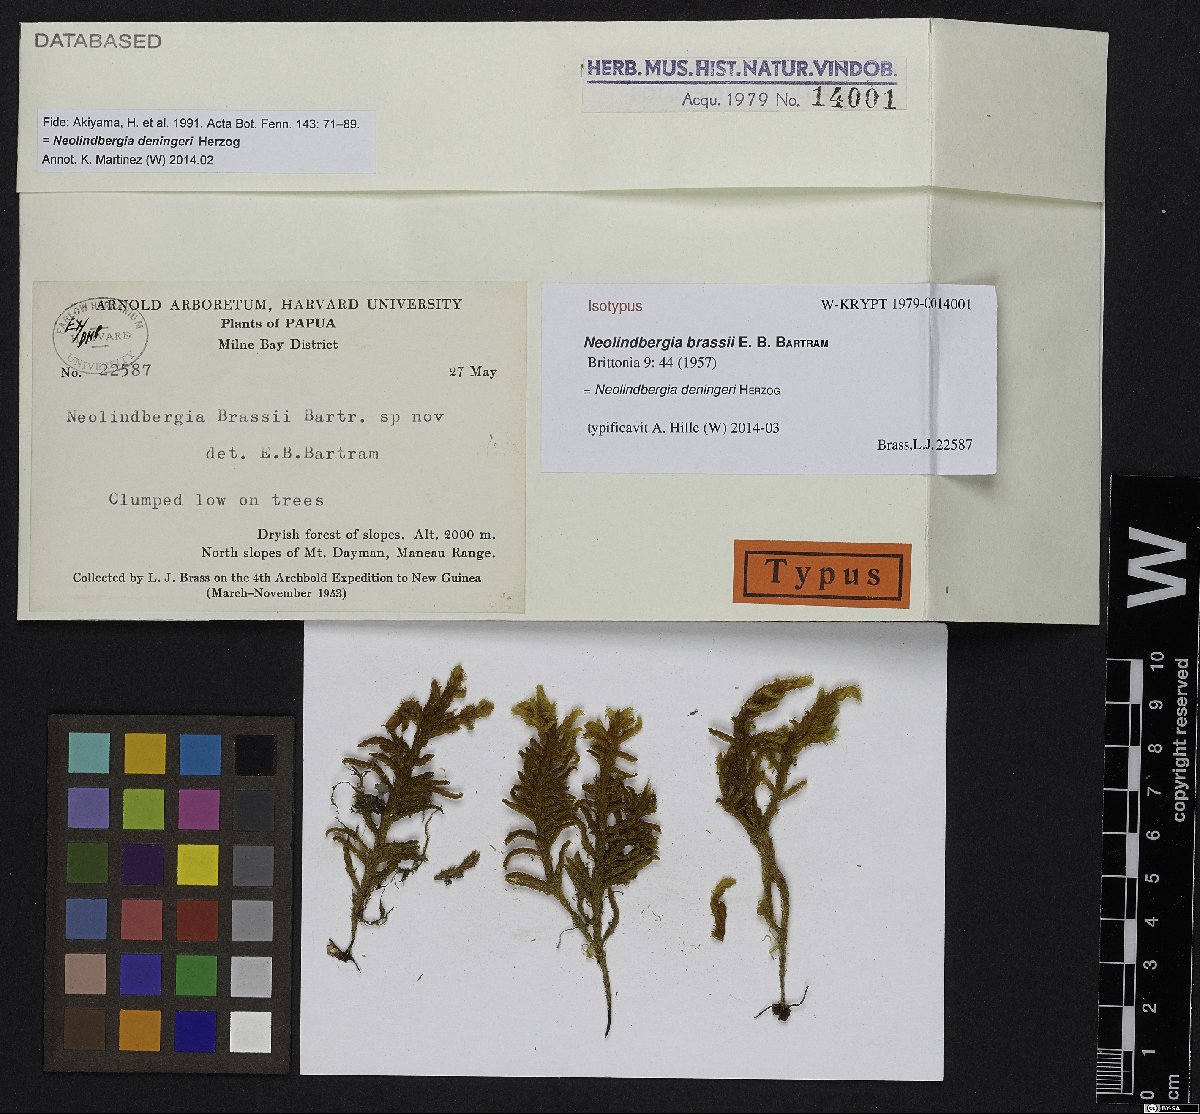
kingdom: Plantae
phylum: Bryophyta
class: Bryopsida
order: Hypnales
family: Pterobryaceae
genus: Neolindbergia
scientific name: Neolindbergia deningeri
